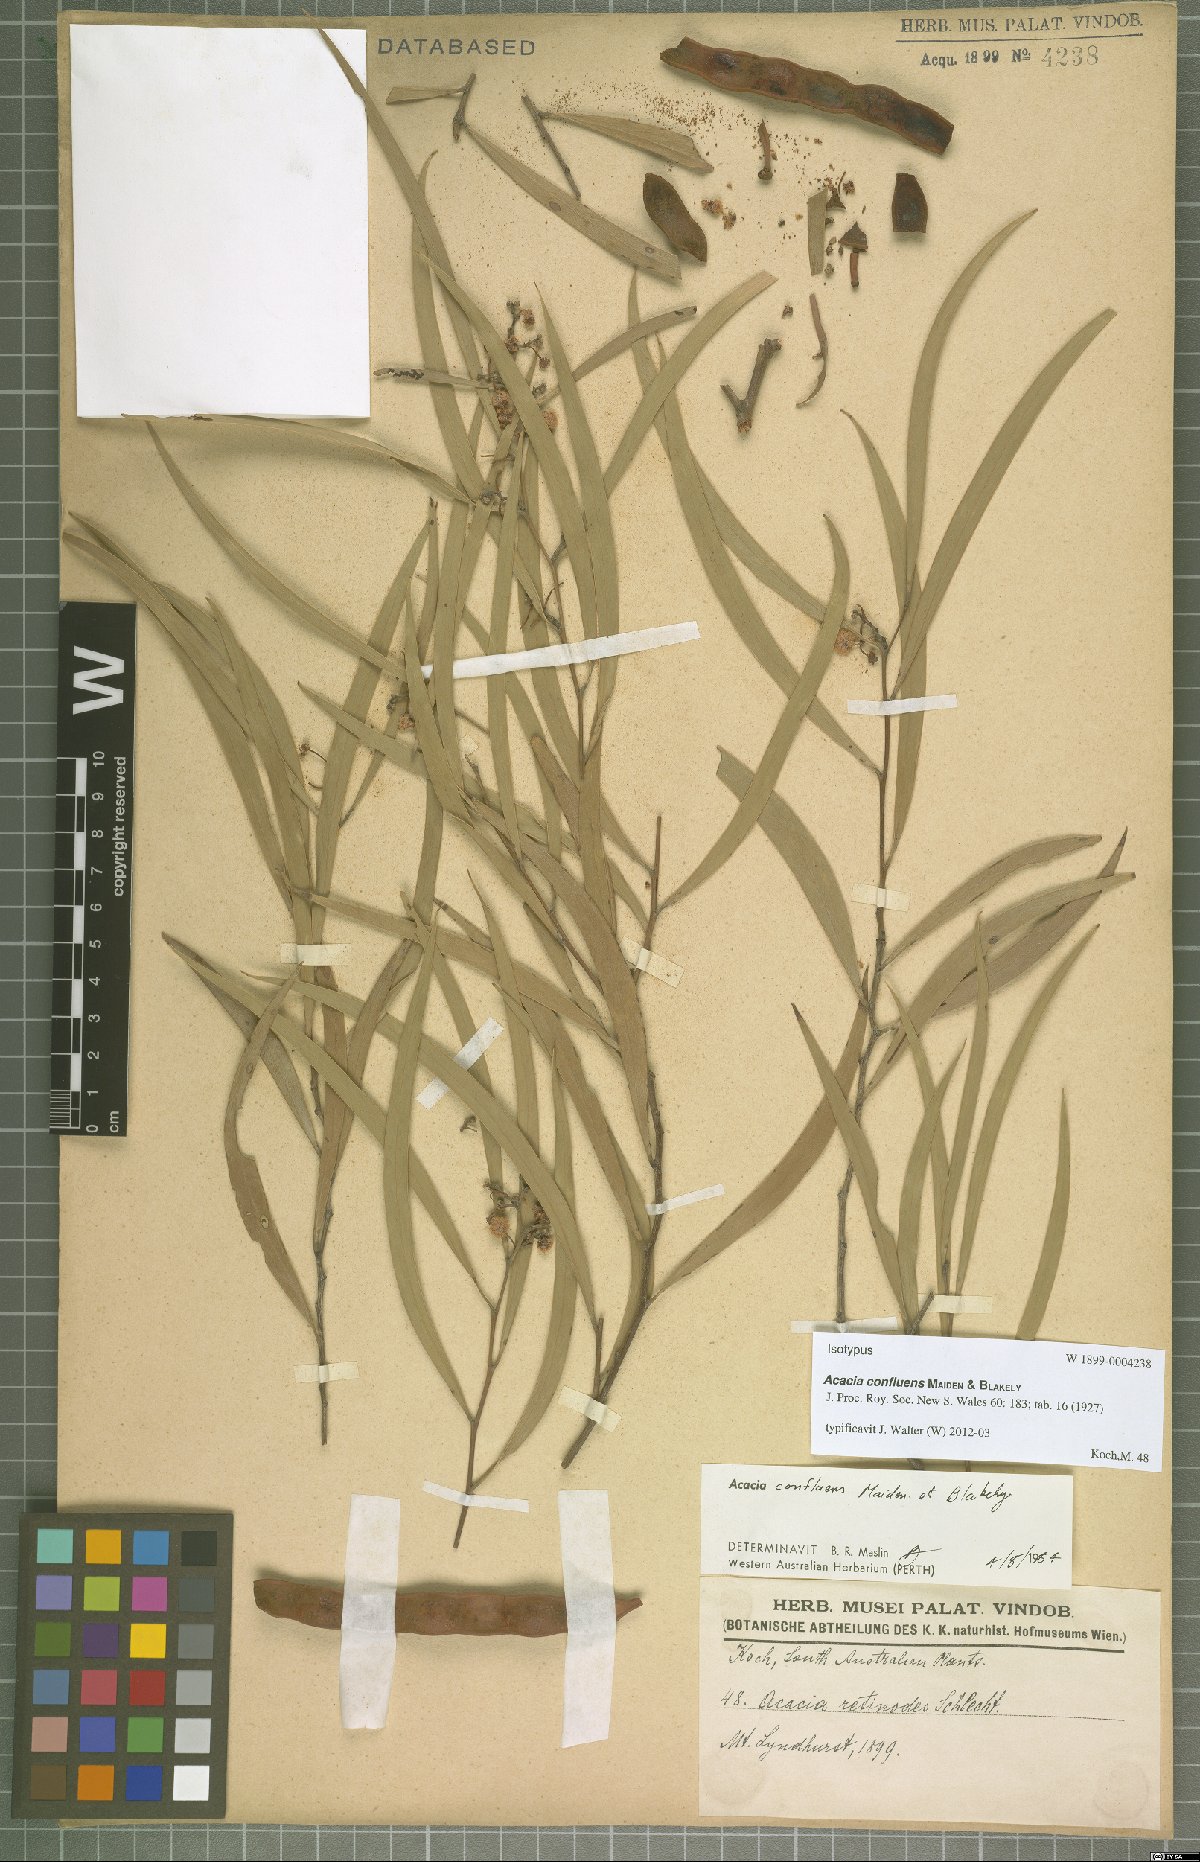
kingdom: Plantae
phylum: Tracheophyta
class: Magnoliopsida
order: Fabales
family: Fabaceae
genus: Acacia
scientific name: Acacia confluens
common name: Arkaroola wattle
